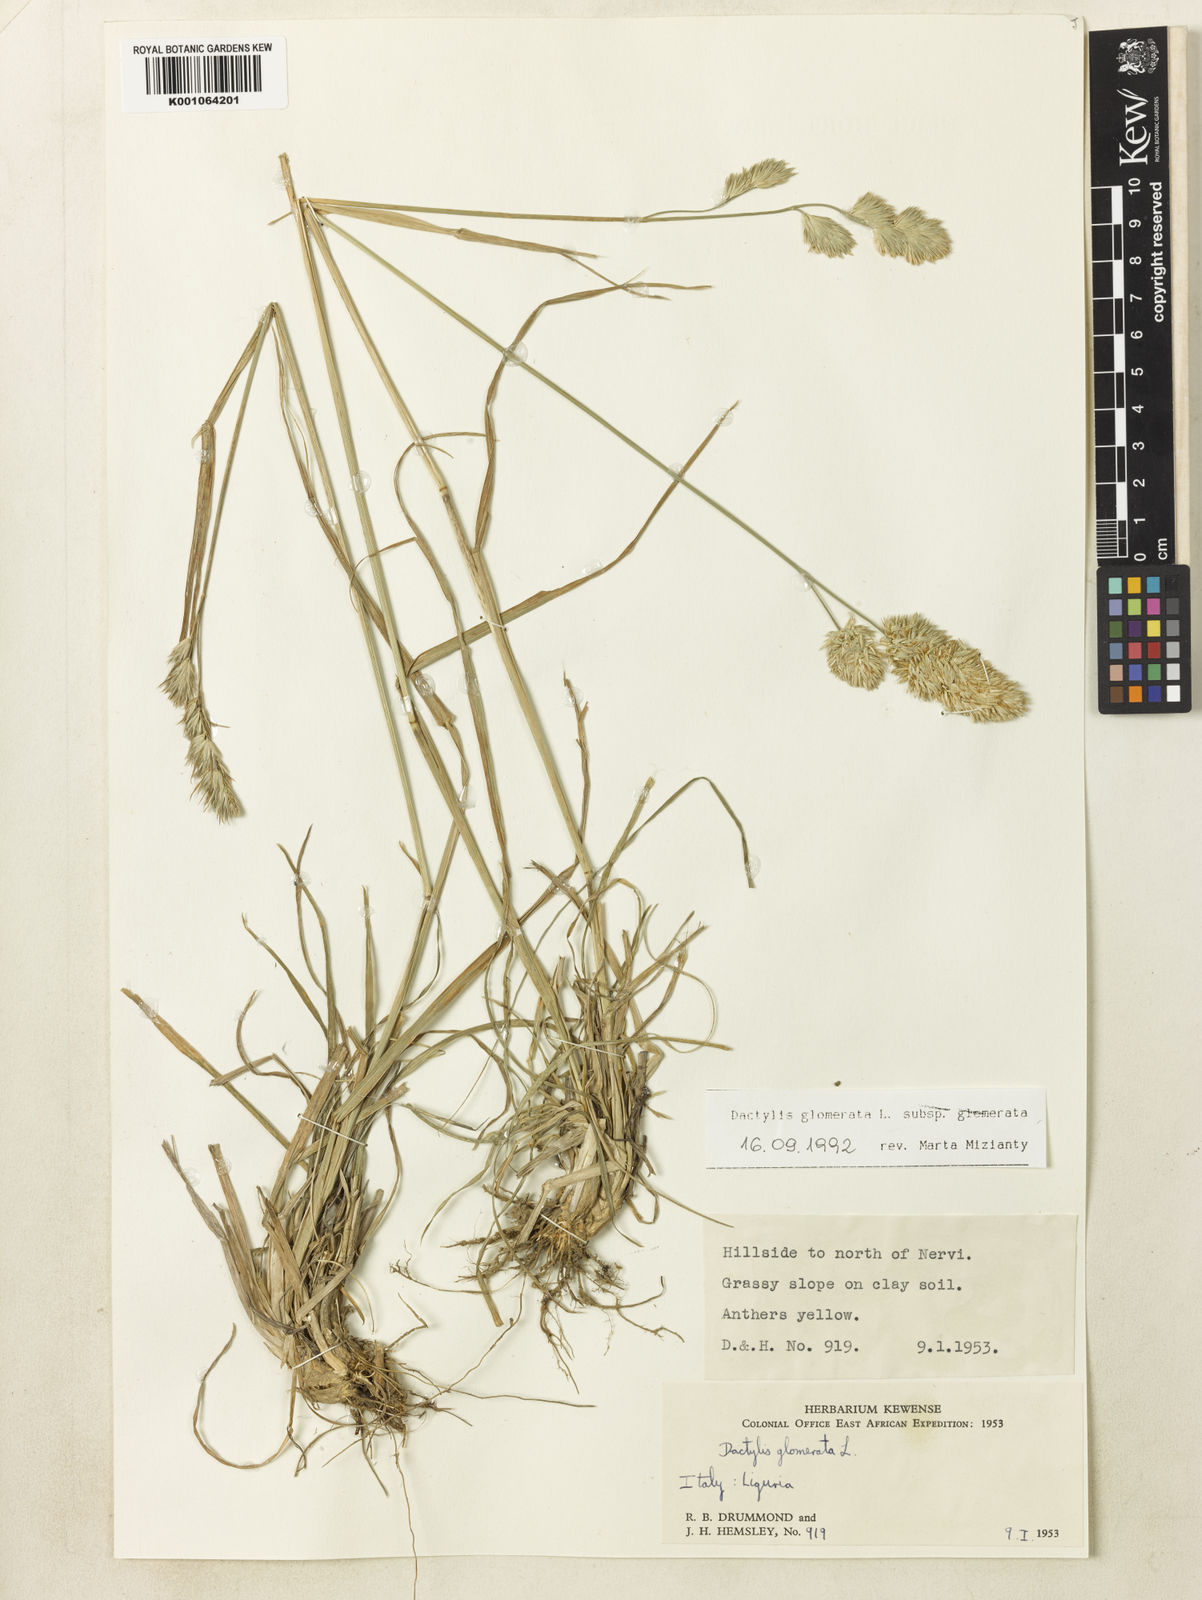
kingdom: Plantae
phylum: Tracheophyta
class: Liliopsida
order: Poales
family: Poaceae
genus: Dactylis
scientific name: Dactylis glomerata
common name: Orchardgrass
